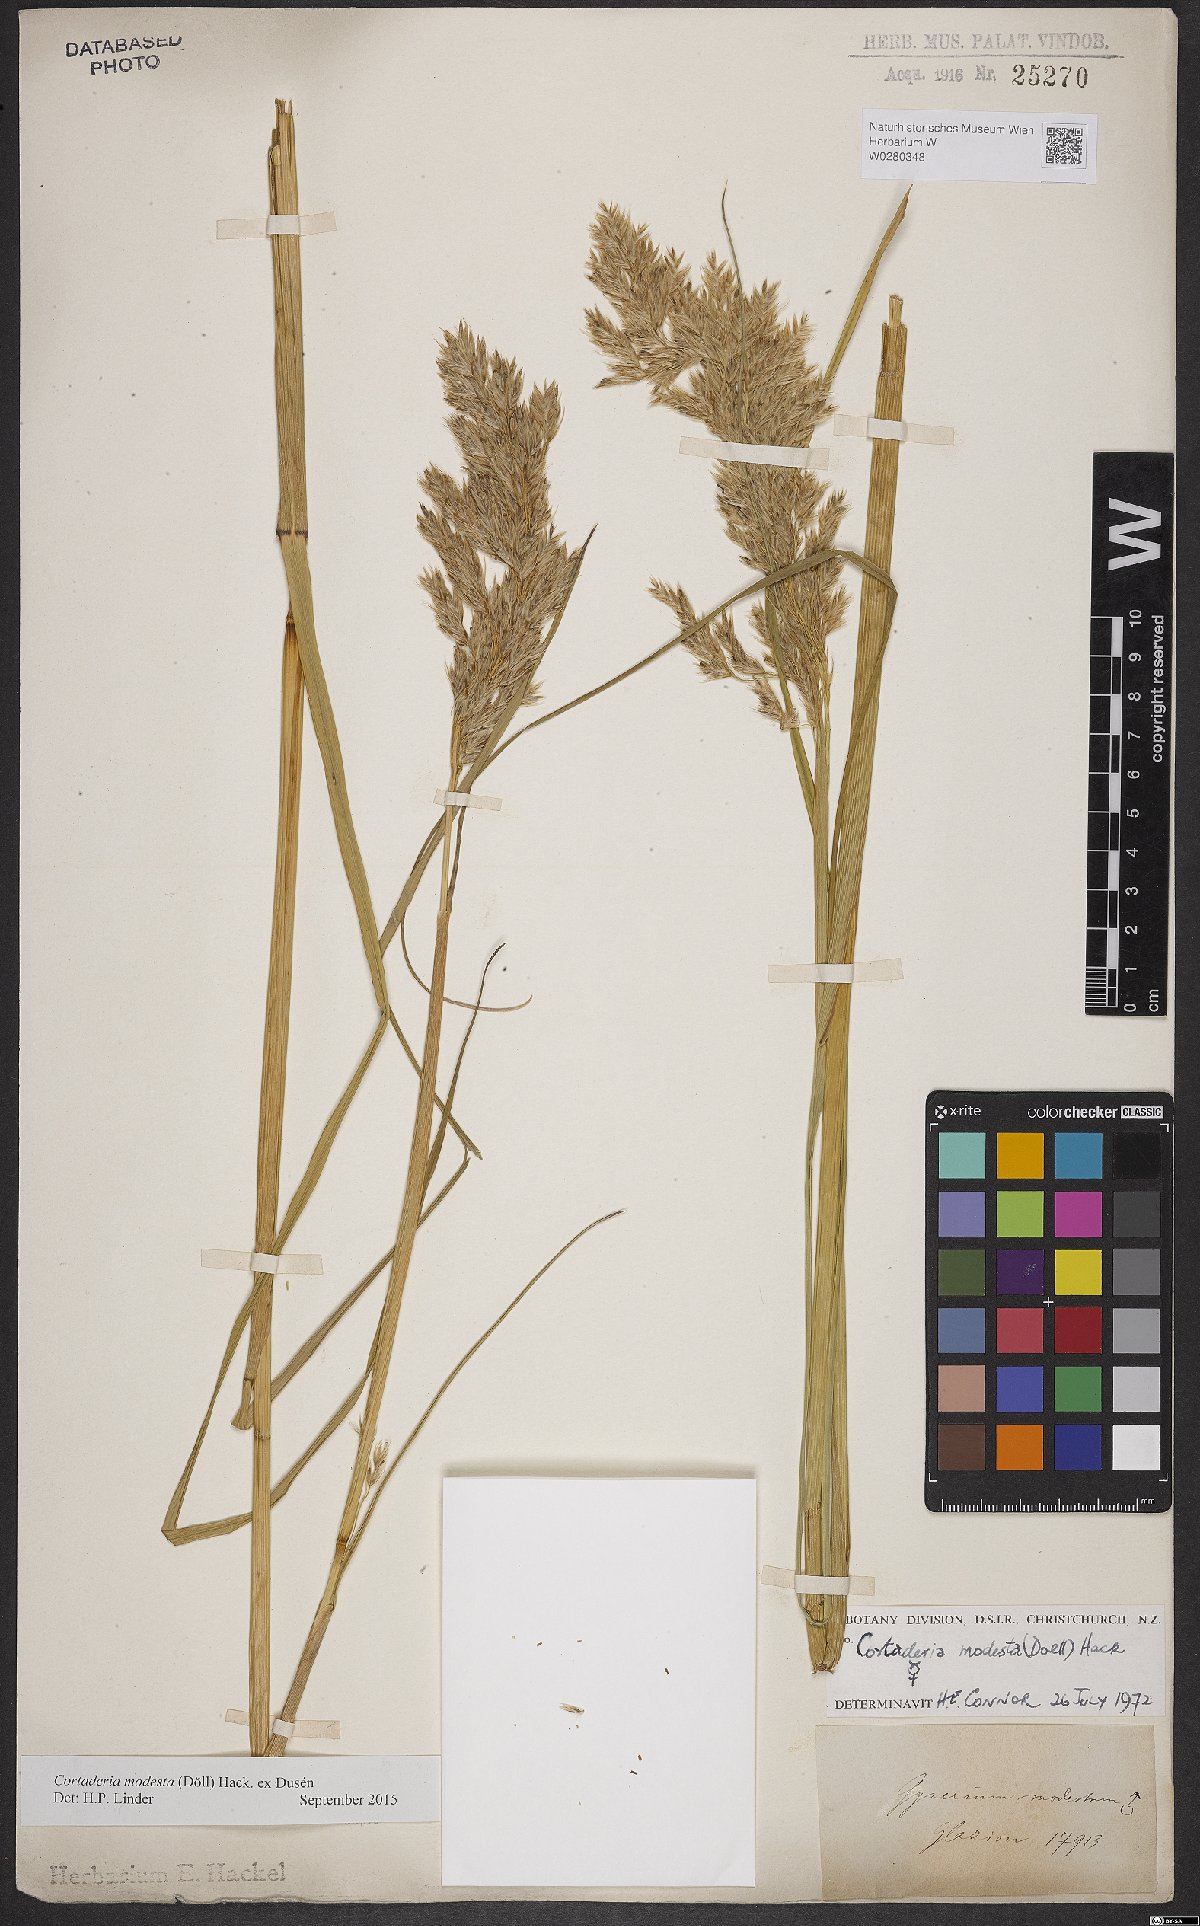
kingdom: Plantae
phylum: Tracheophyta
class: Liliopsida
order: Poales
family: Poaceae
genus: Cortaderia
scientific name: Cortaderia modesta
